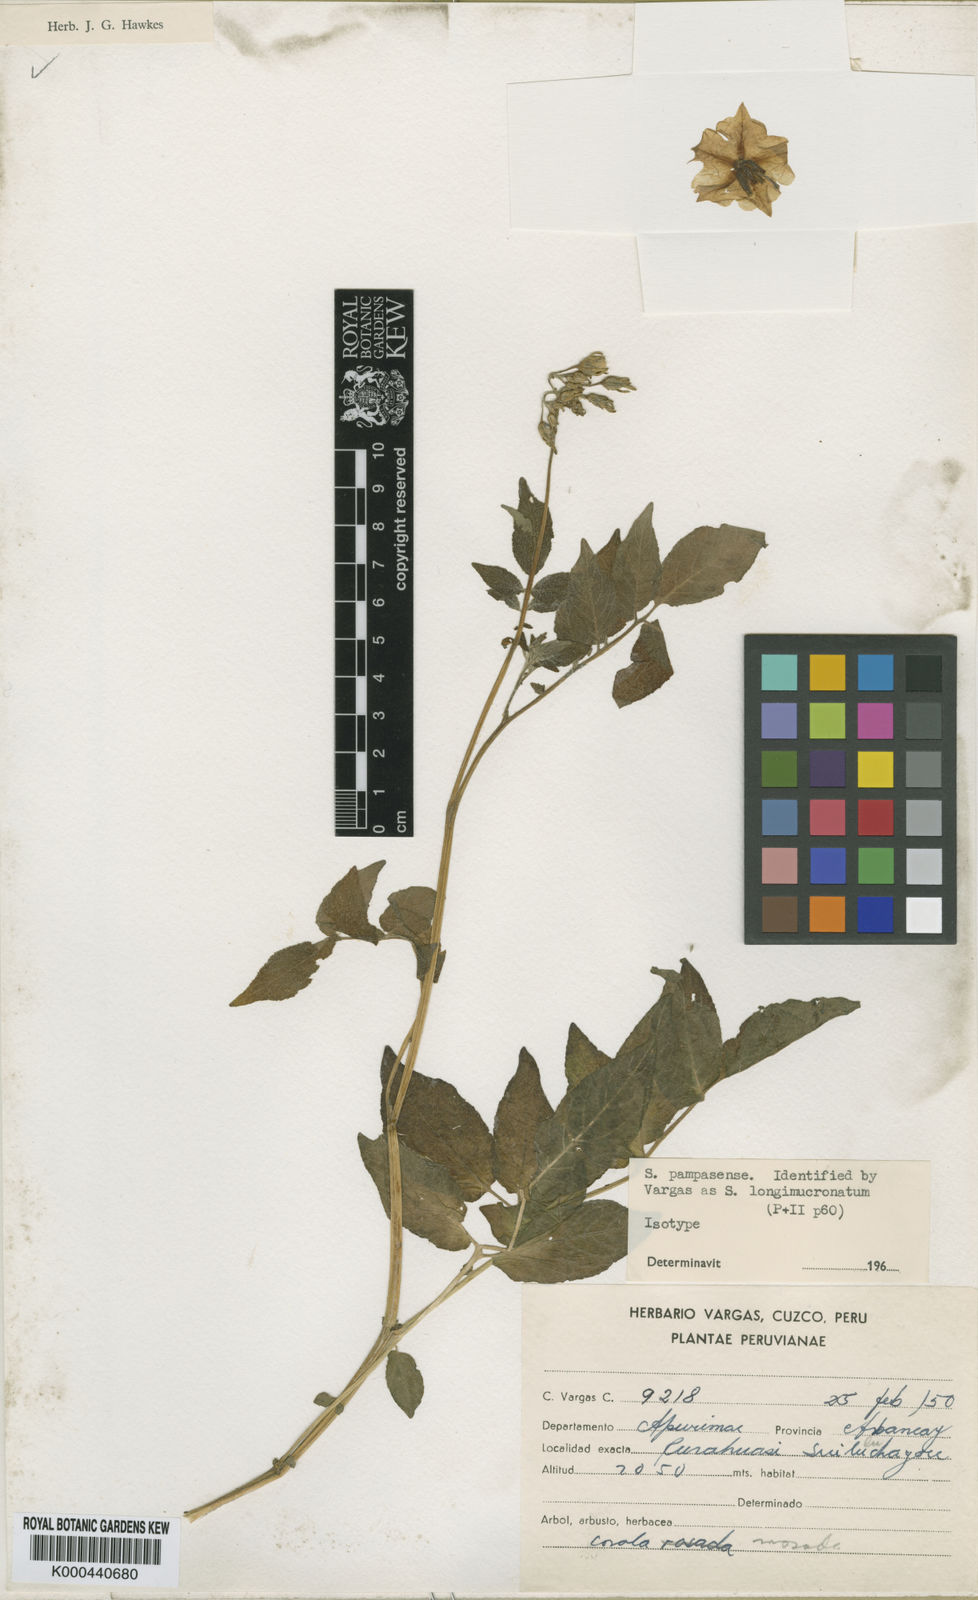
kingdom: Plantae
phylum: Tracheophyta
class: Magnoliopsida
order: Solanales
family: Solanaceae
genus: Solanum
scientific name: Solanum candolleanum
